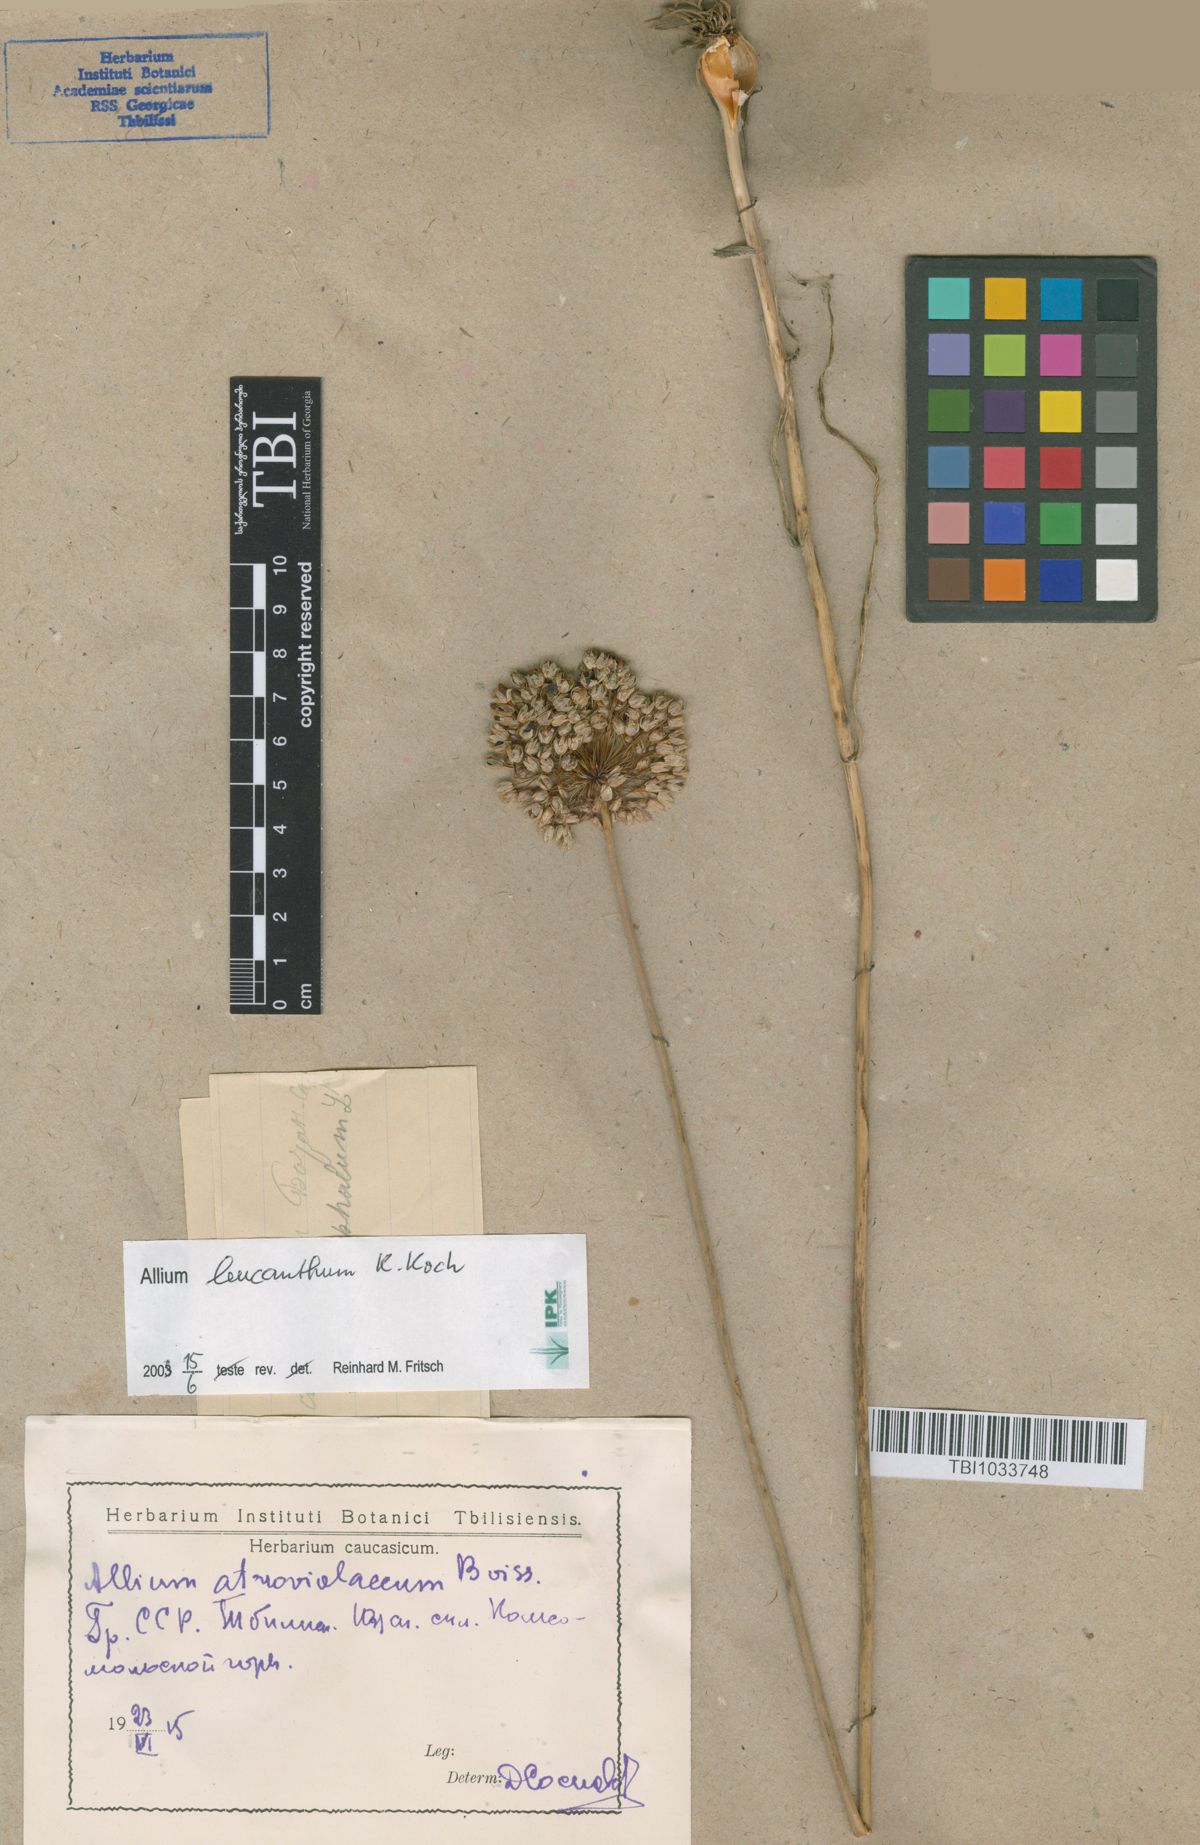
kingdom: Plantae
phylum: Tracheophyta
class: Liliopsida
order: Asparagales
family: Amaryllidaceae
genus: Allium
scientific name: Allium ampeloprasum
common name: Wild leek
